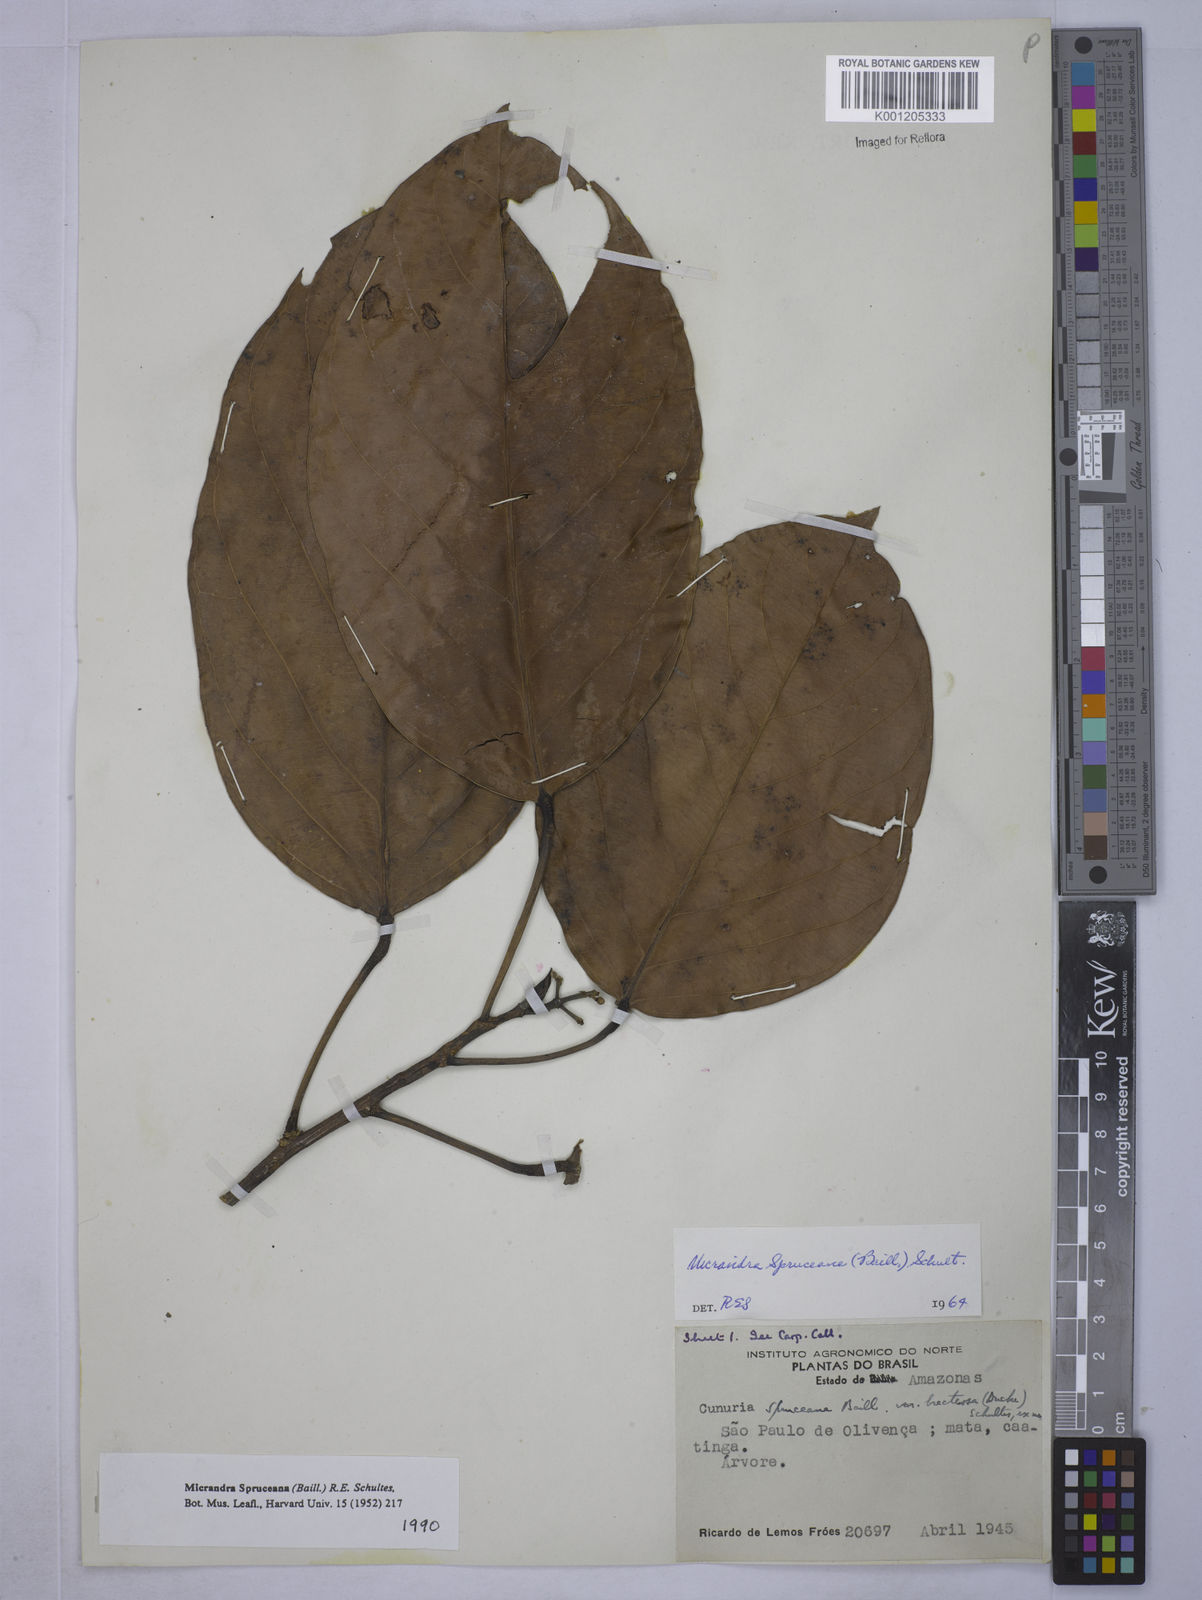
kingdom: Plantae
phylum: Tracheophyta
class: Magnoliopsida
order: Malpighiales
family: Euphorbiaceae
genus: Micrandra
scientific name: Micrandra spruceana
